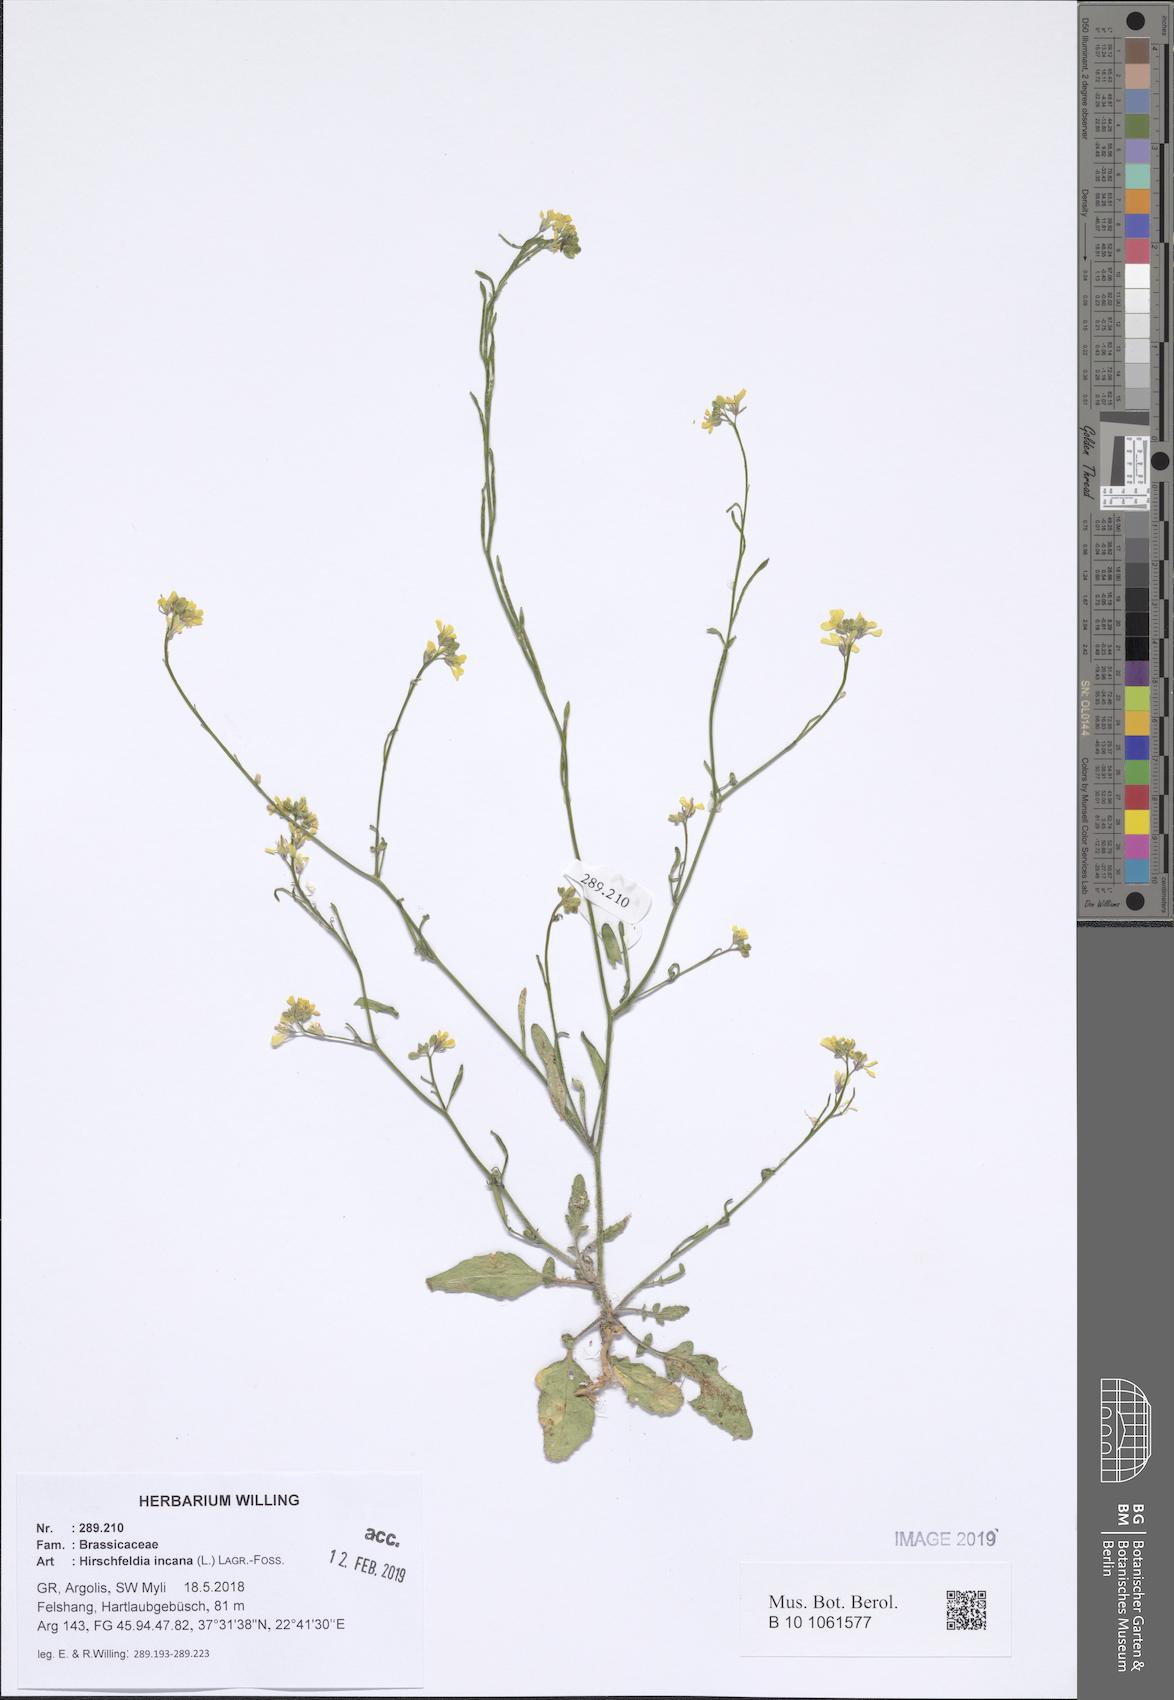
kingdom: Plantae
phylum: Tracheophyta
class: Magnoliopsida
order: Brassicales
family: Brassicaceae
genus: Hirschfeldia
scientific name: Hirschfeldia incana
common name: Hoary mustard
